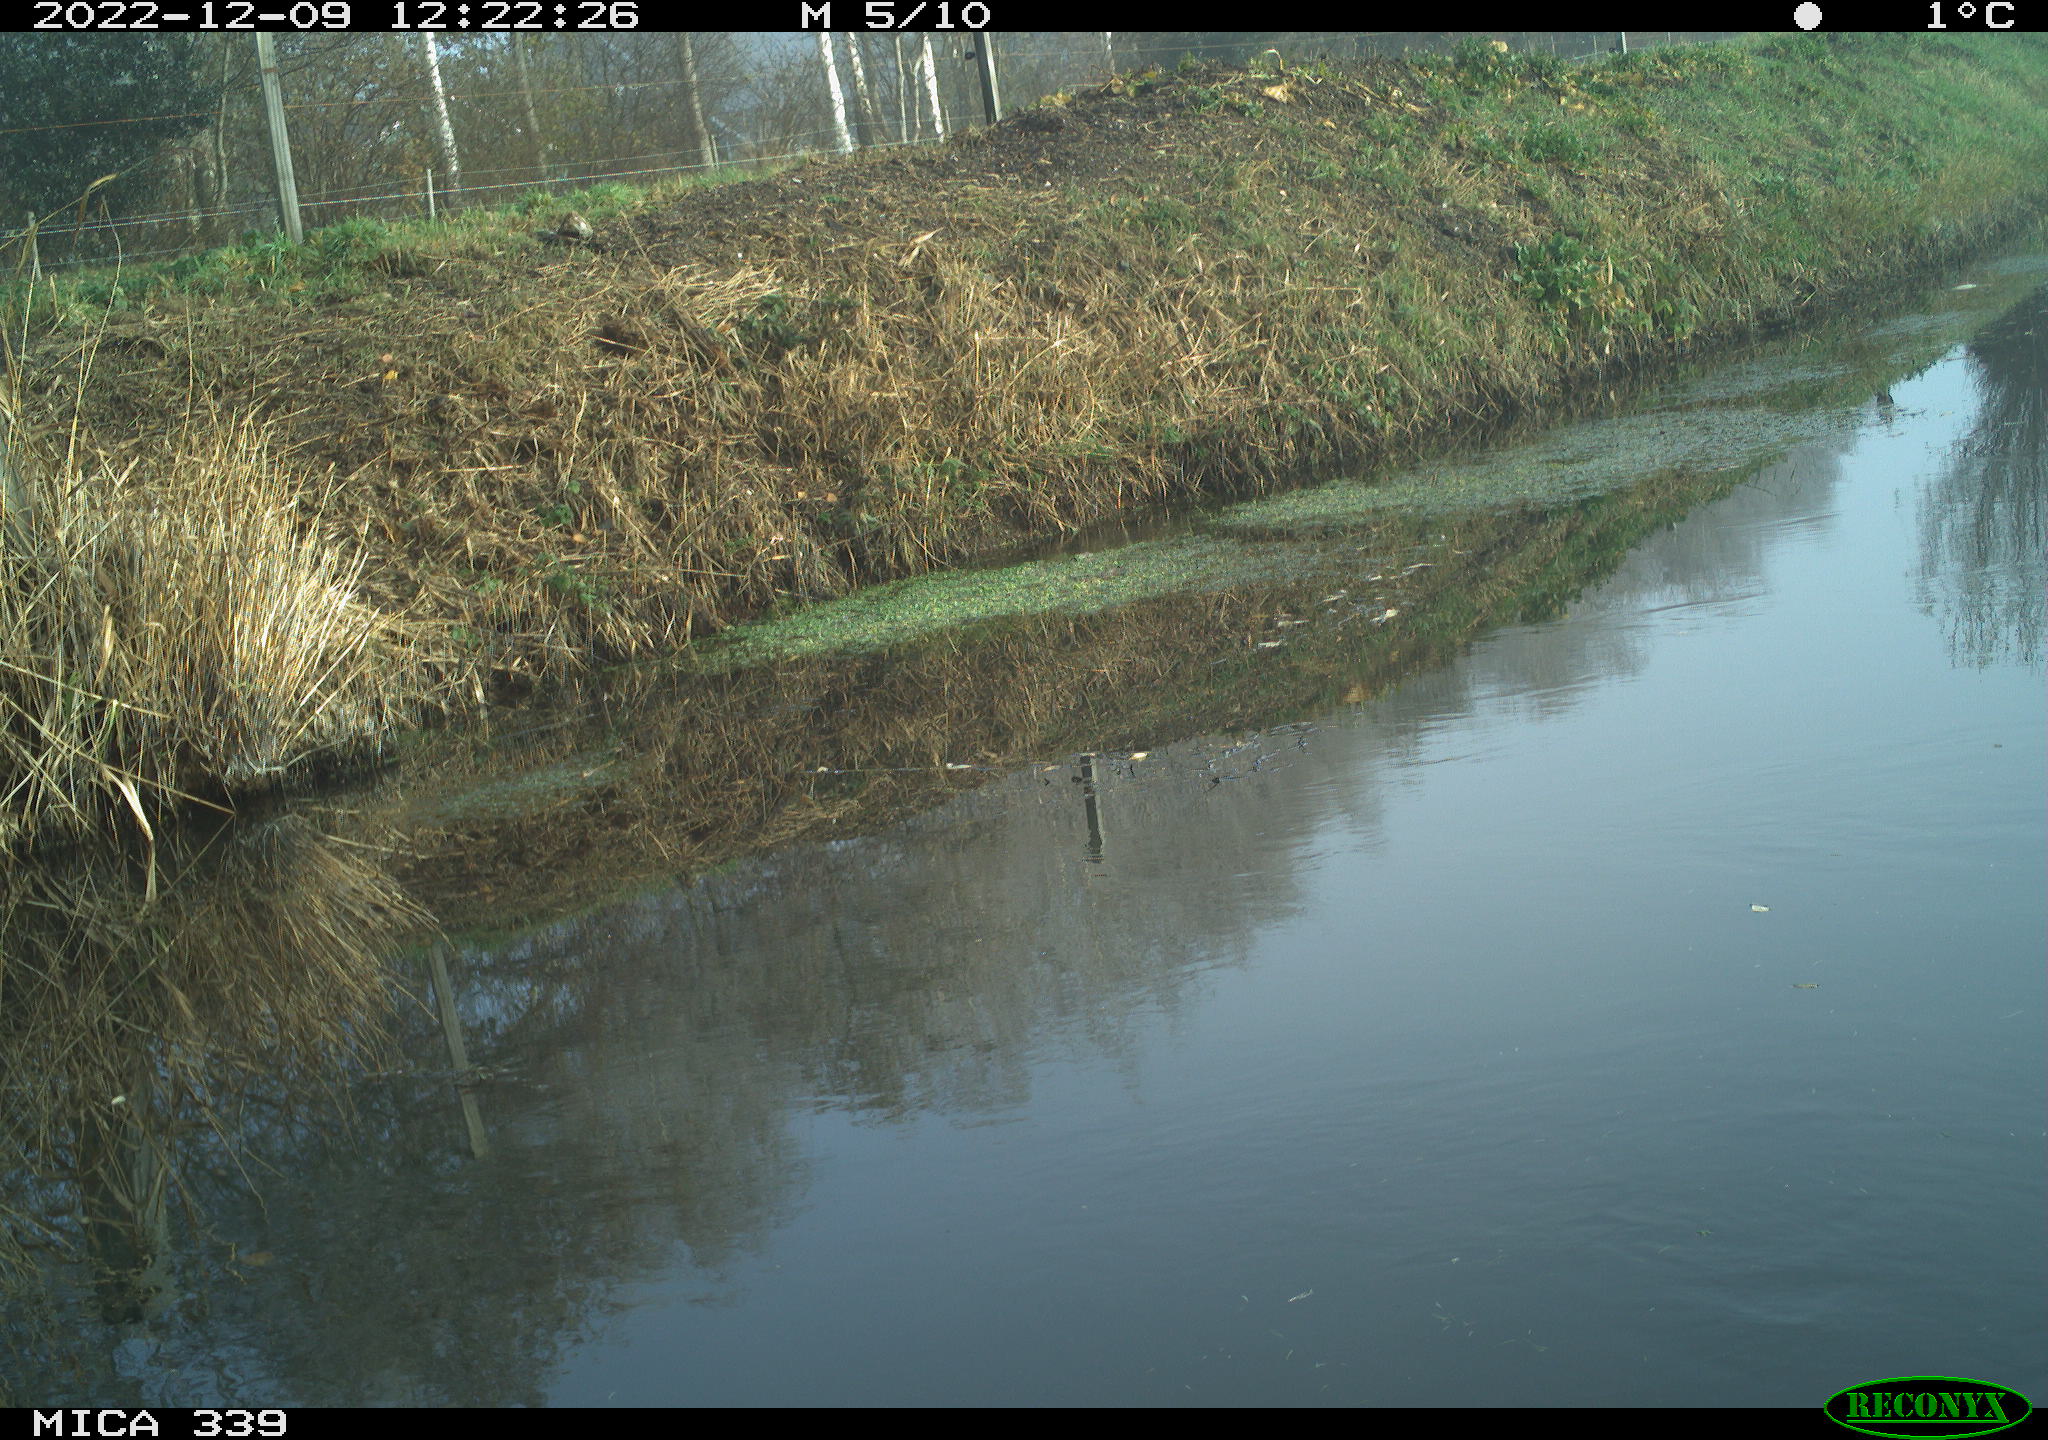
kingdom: Animalia
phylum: Chordata
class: Aves
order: Pelecaniformes
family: Ardeidae
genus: Ardea
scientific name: Ardea cinerea
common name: Grey heron
